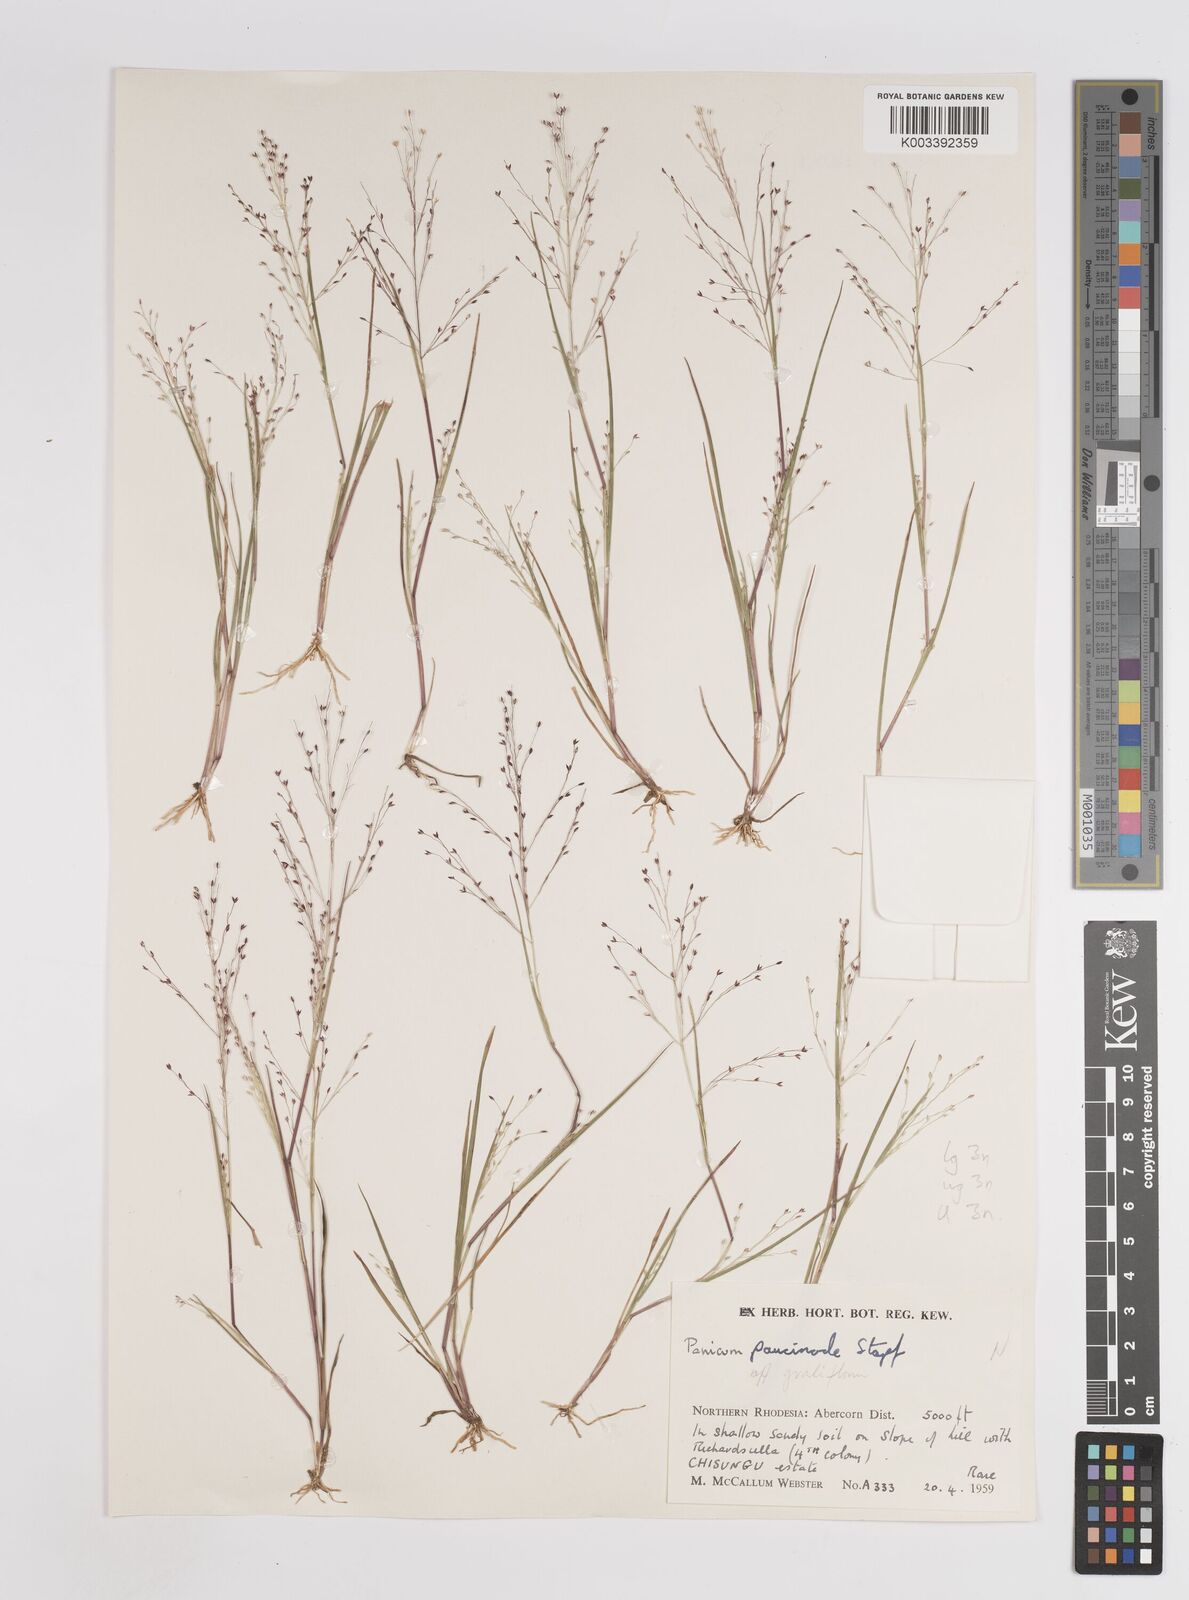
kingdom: Plantae
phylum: Tracheophyta
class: Liliopsida
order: Poales
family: Poaceae
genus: Panicum
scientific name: Panicum humile
